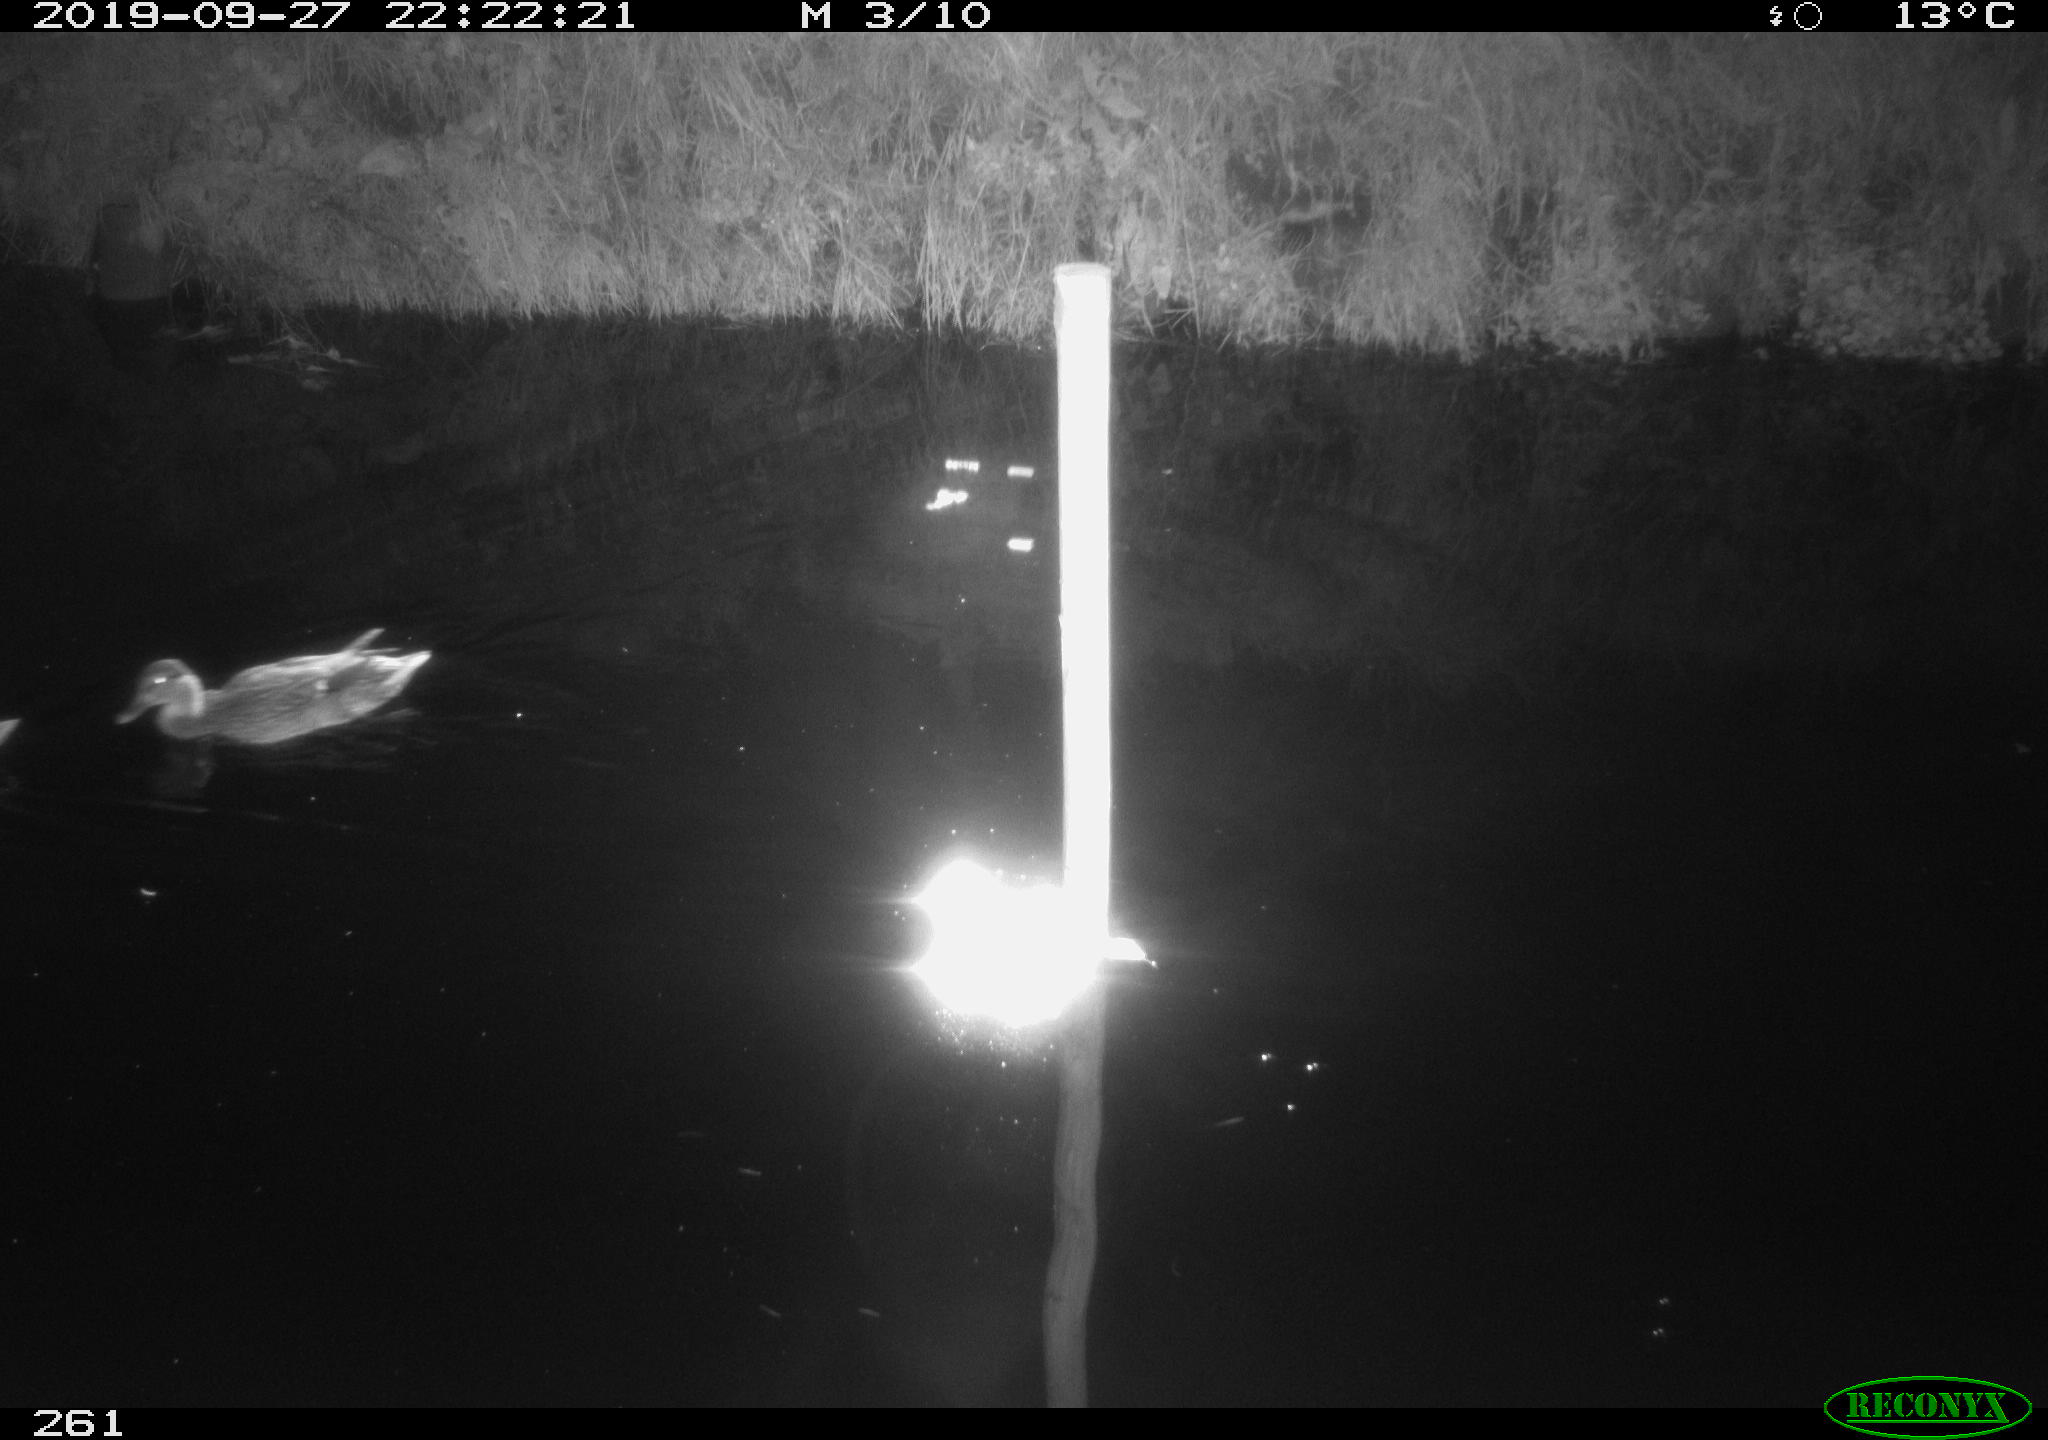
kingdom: Animalia
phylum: Chordata
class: Aves
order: Anseriformes
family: Anatidae
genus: Anas
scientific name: Anas platyrhynchos
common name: Mallard
